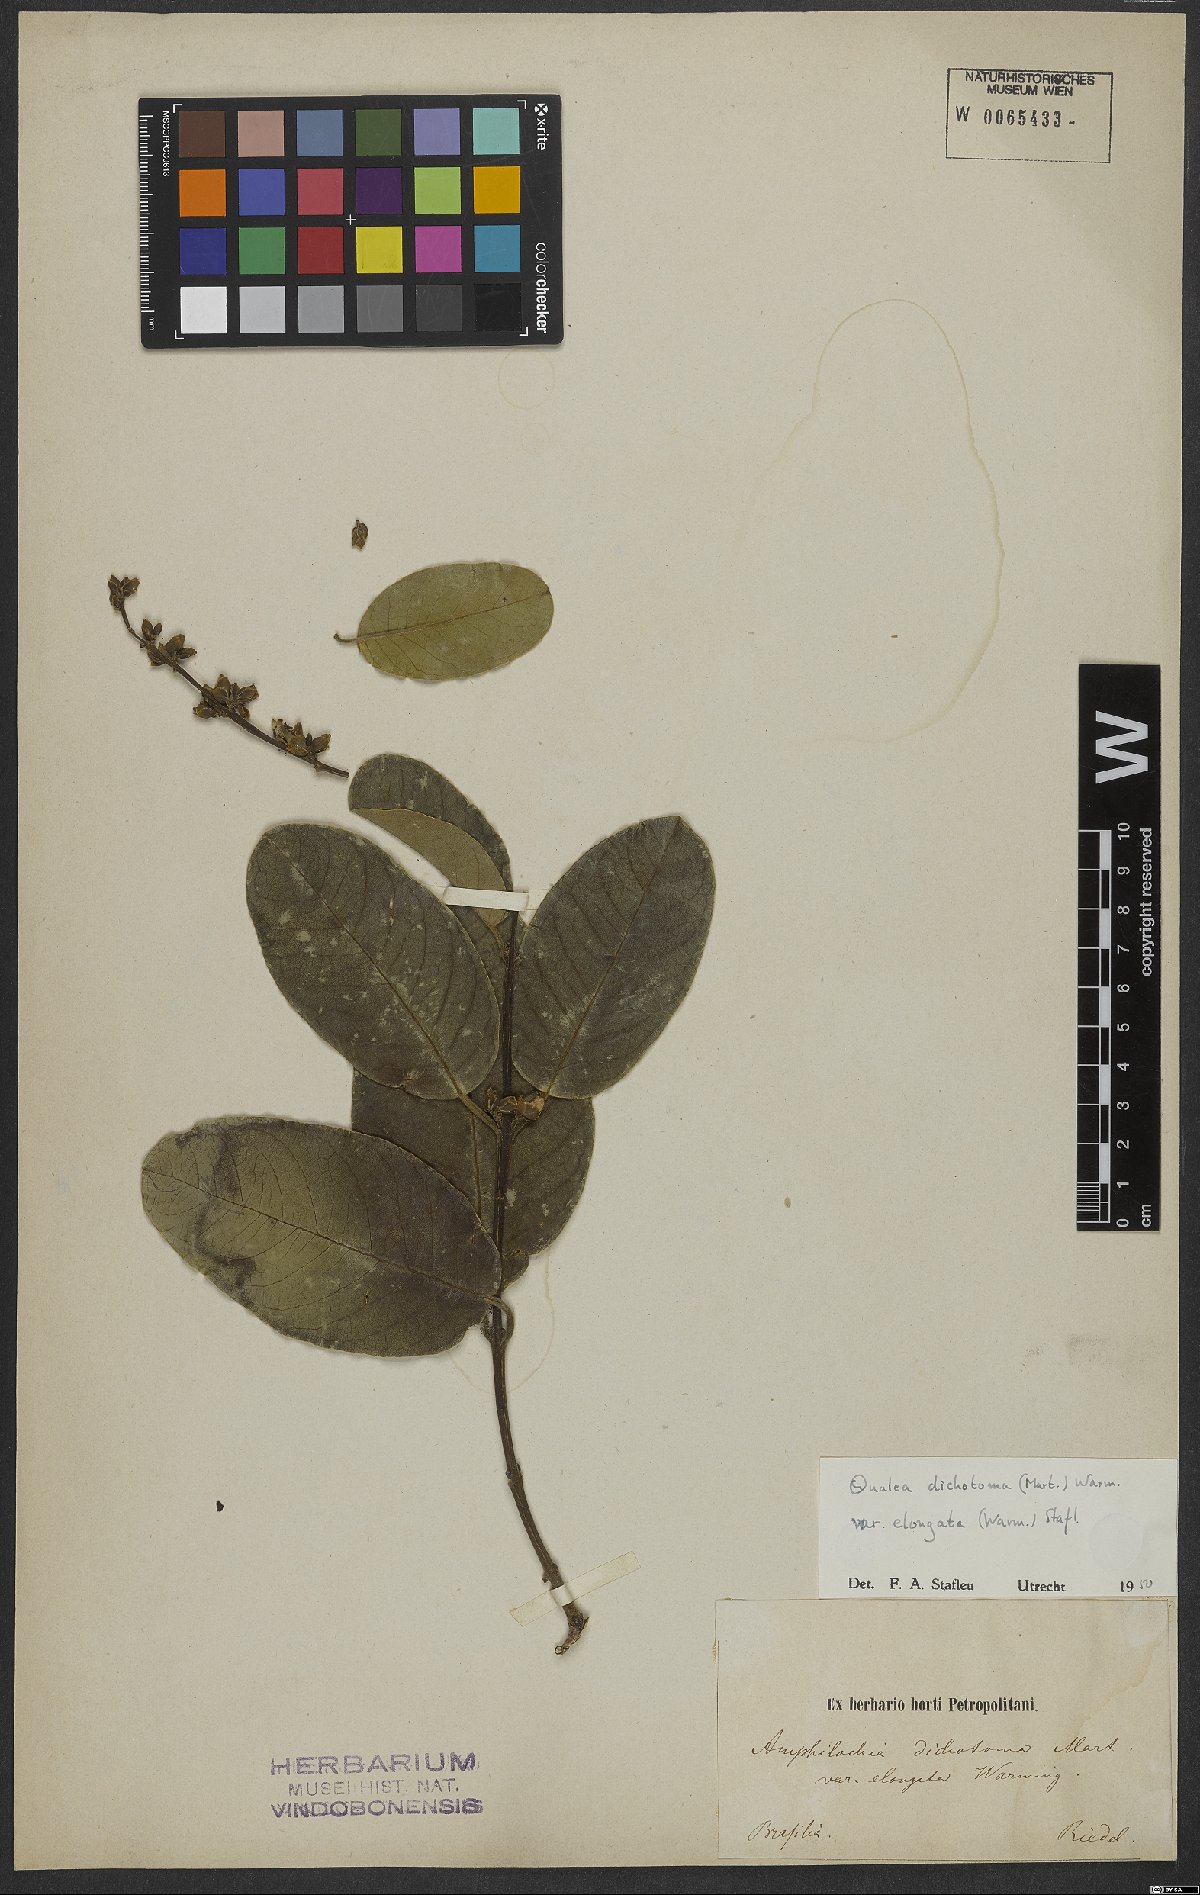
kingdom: Plantae
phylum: Tracheophyta
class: Magnoliopsida
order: Myrtales
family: Vochysiaceae
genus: Qualea
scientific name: Qualea cordata
